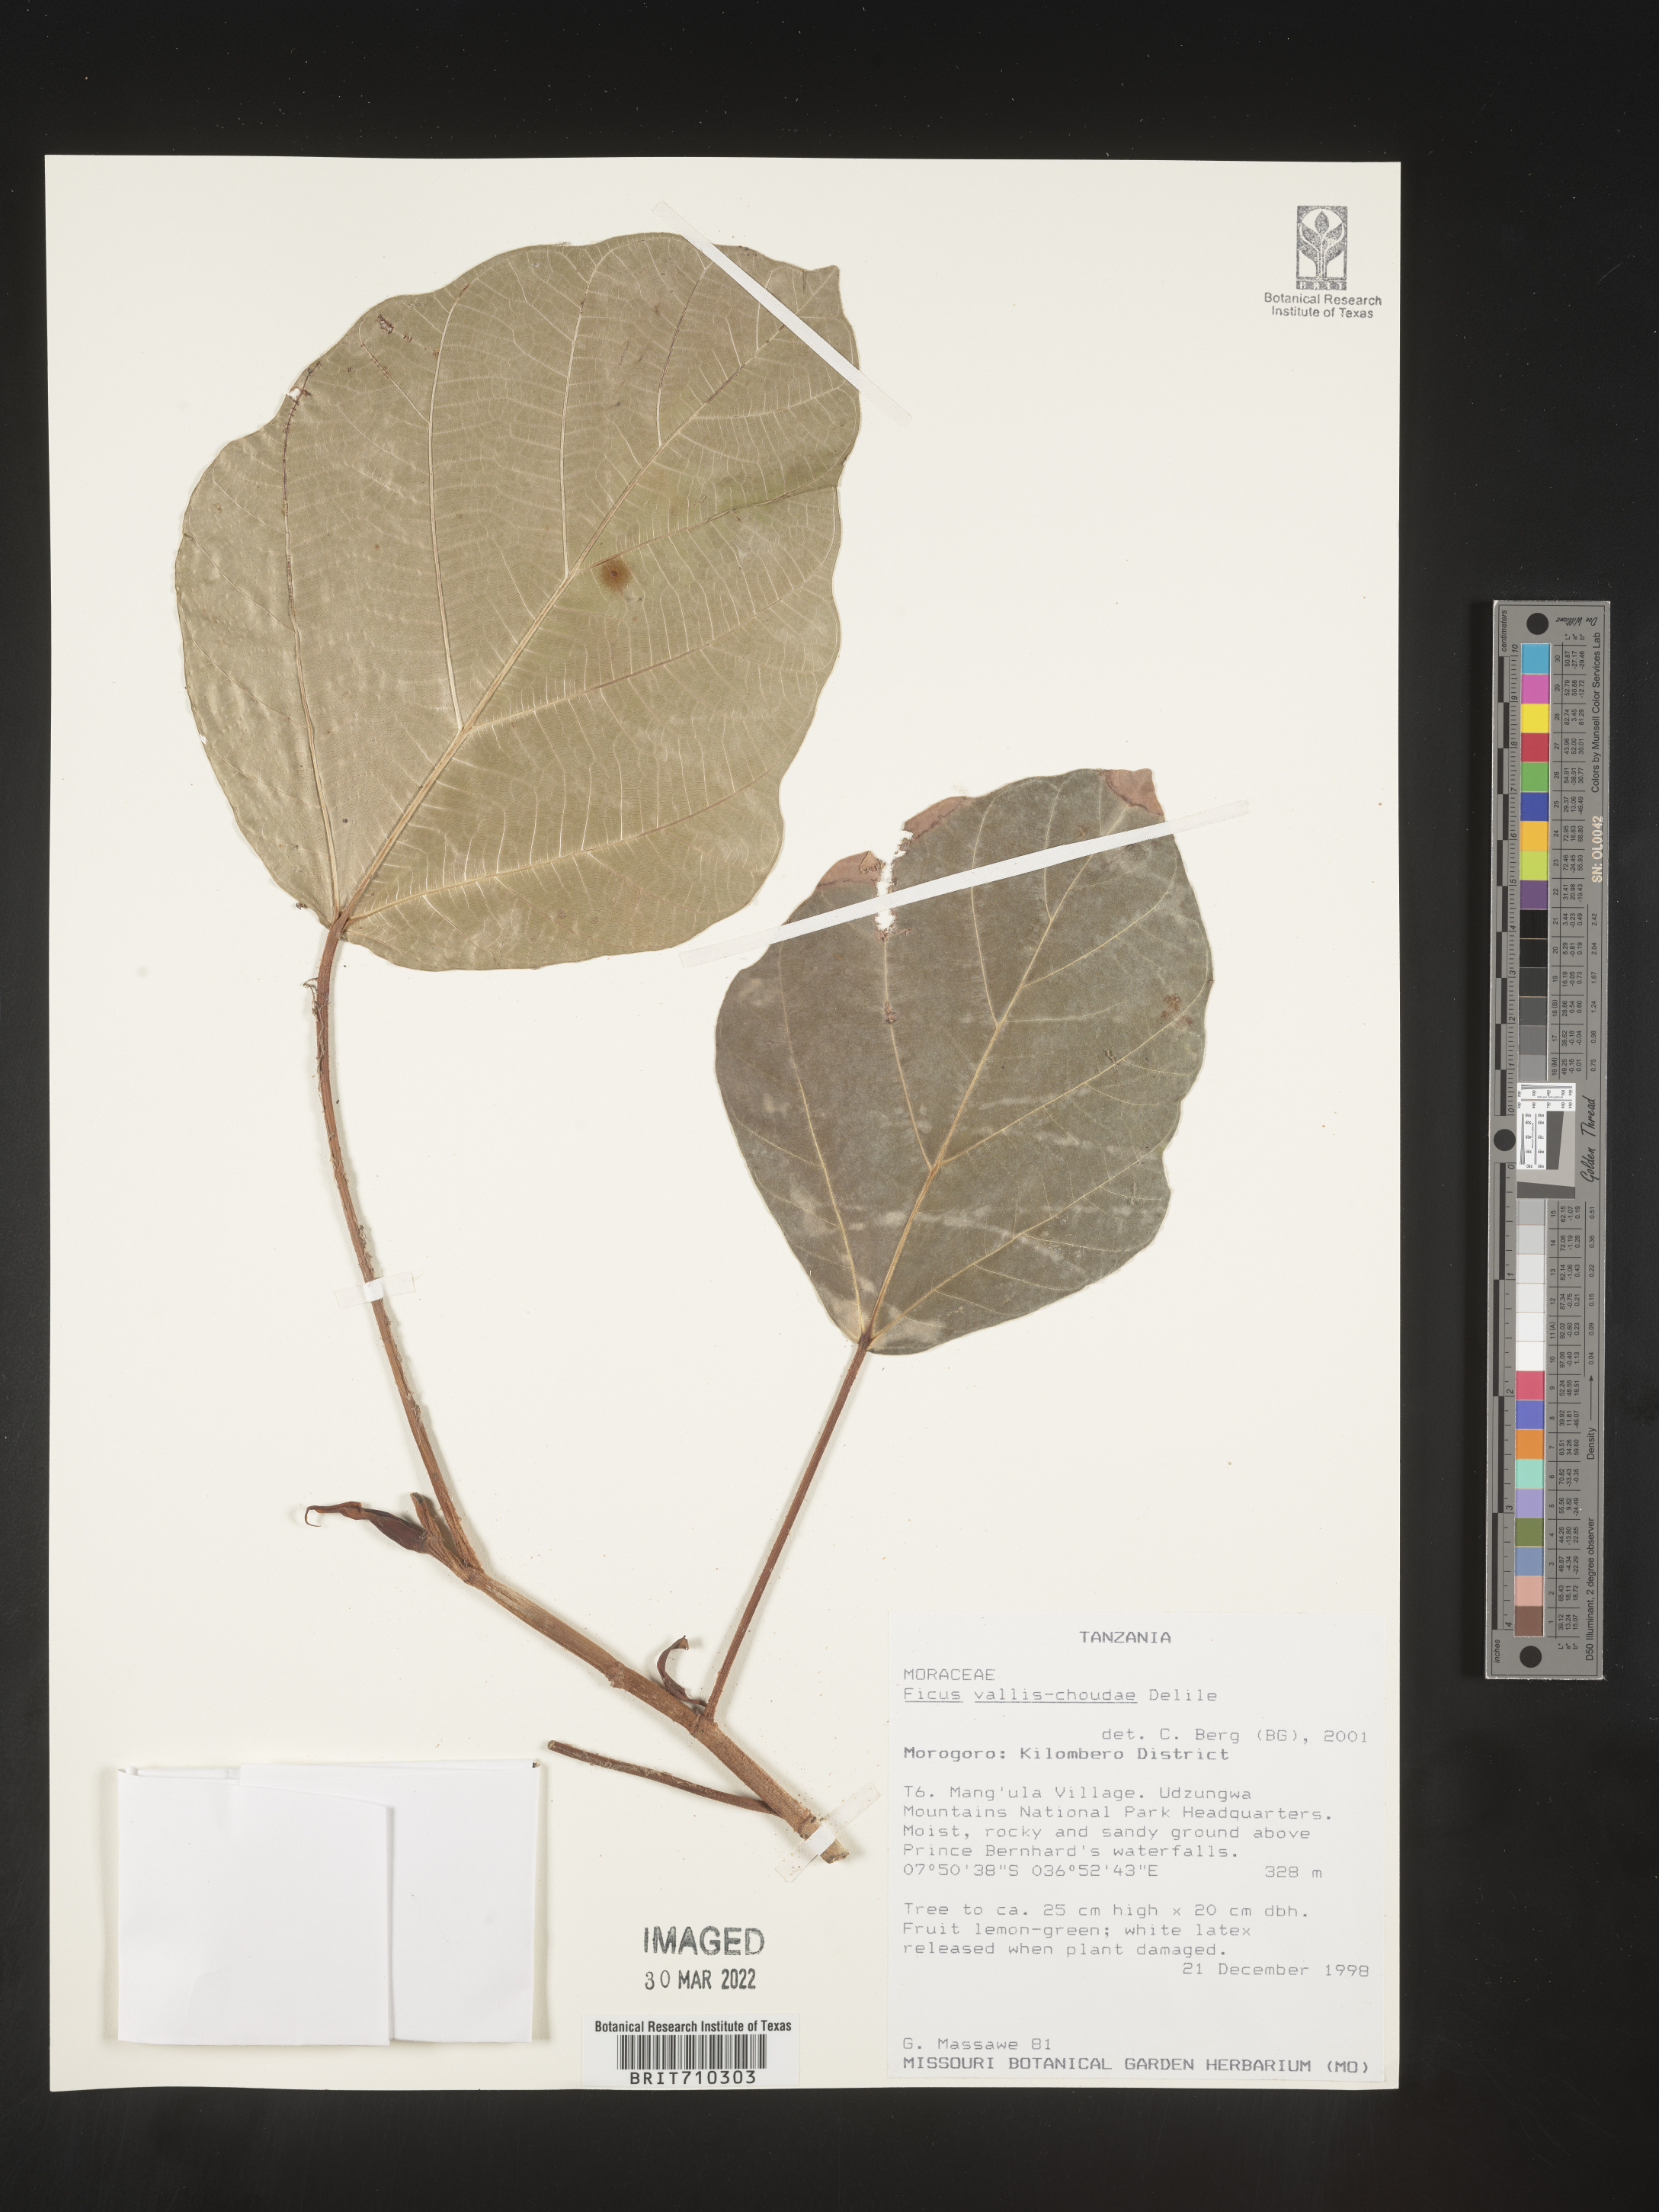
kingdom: Plantae
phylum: Tracheophyta
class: Magnoliopsida
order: Rosales
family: Moraceae
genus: Ficus
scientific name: Ficus
